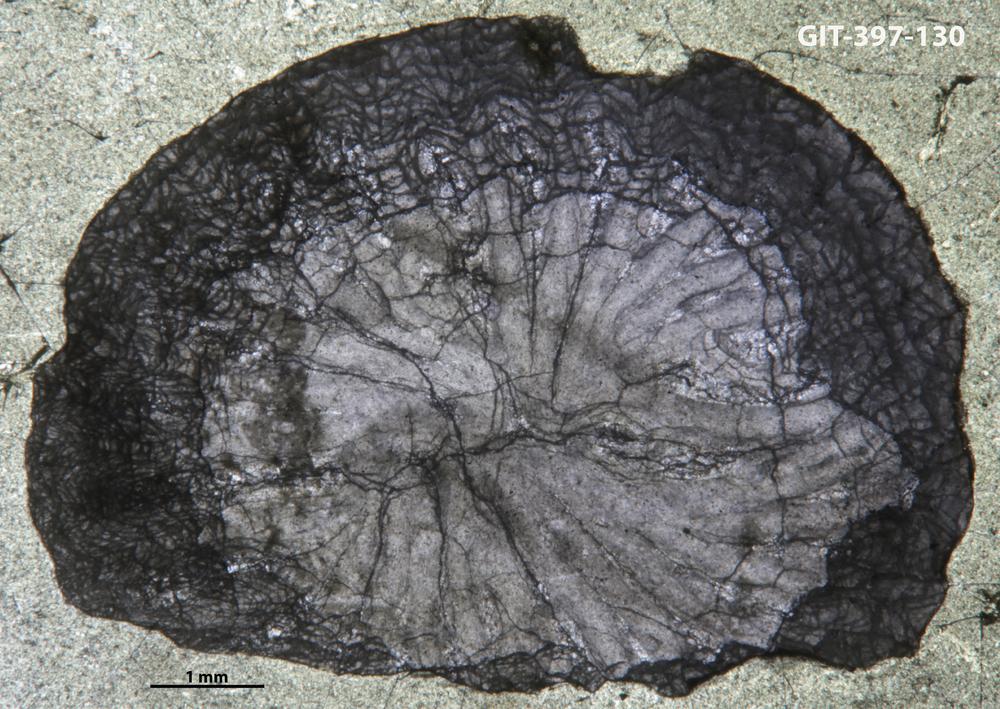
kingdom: Animalia
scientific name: Animalia
